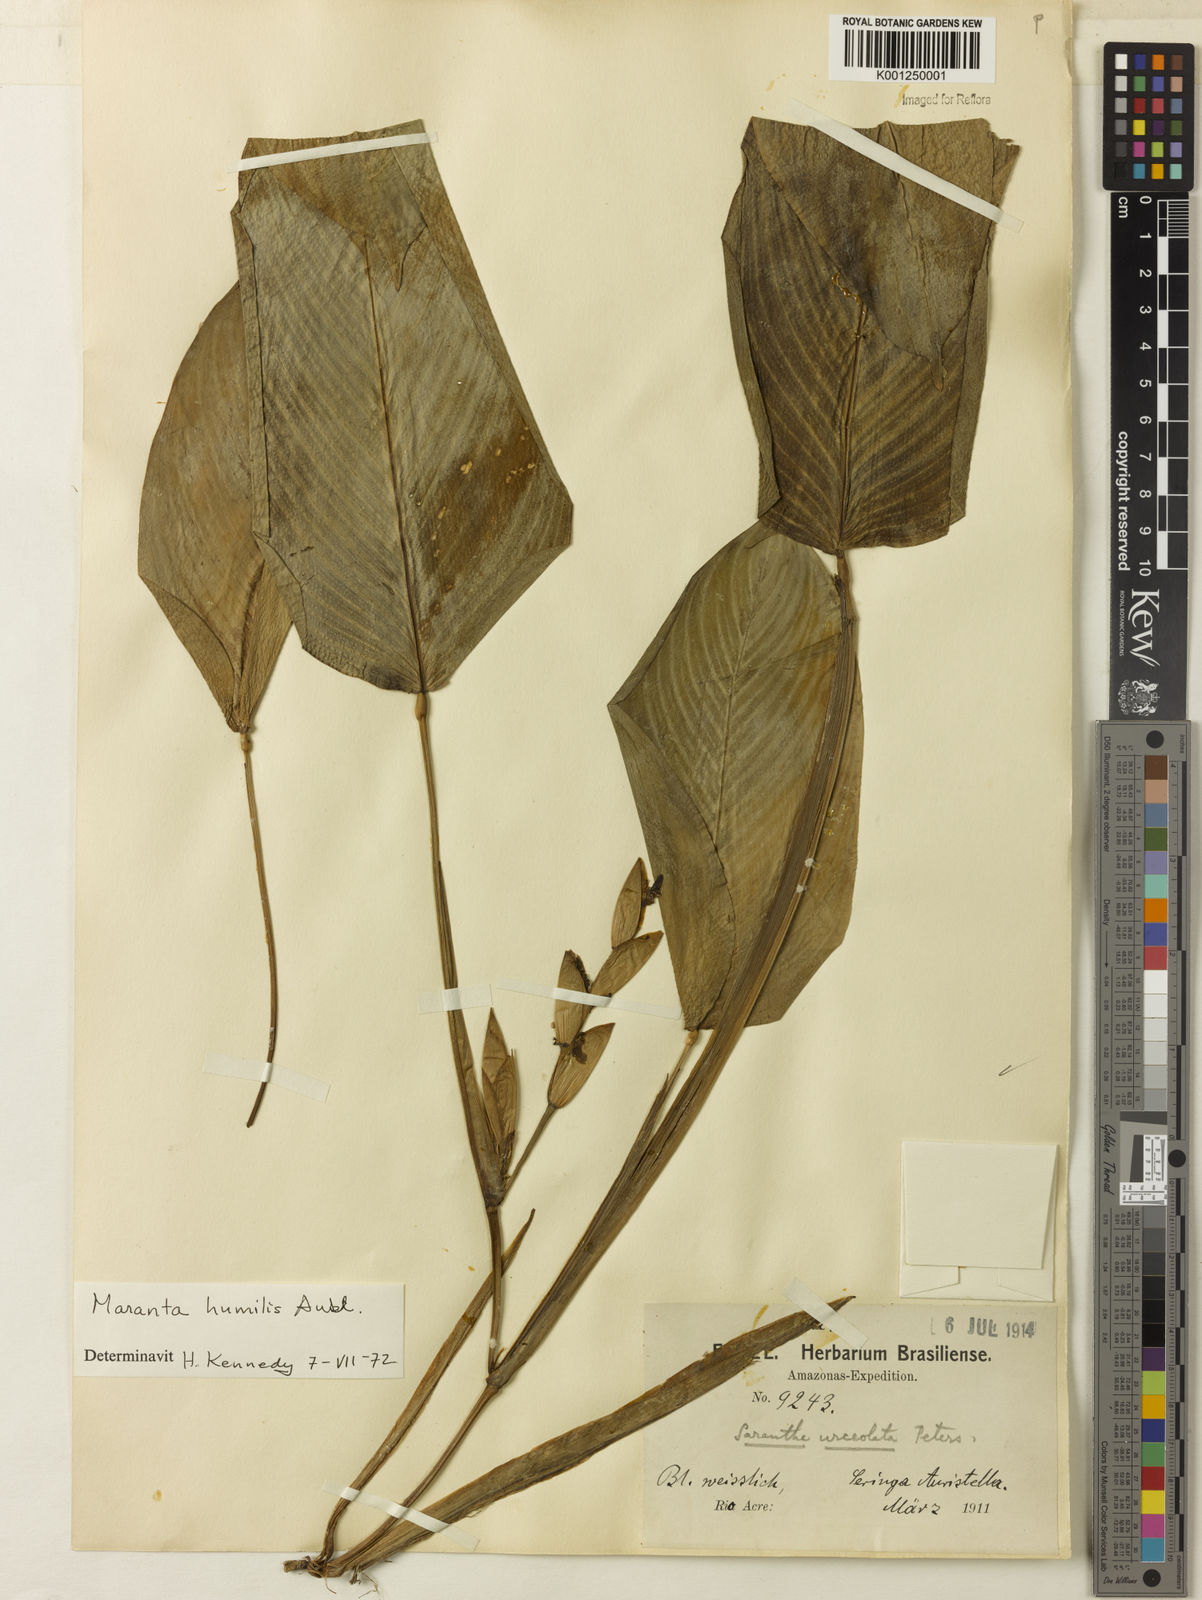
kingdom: Plantae
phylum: Tracheophyta
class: Liliopsida
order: Zingiberales
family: Marantaceae
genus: Maranta
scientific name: Maranta humilis
